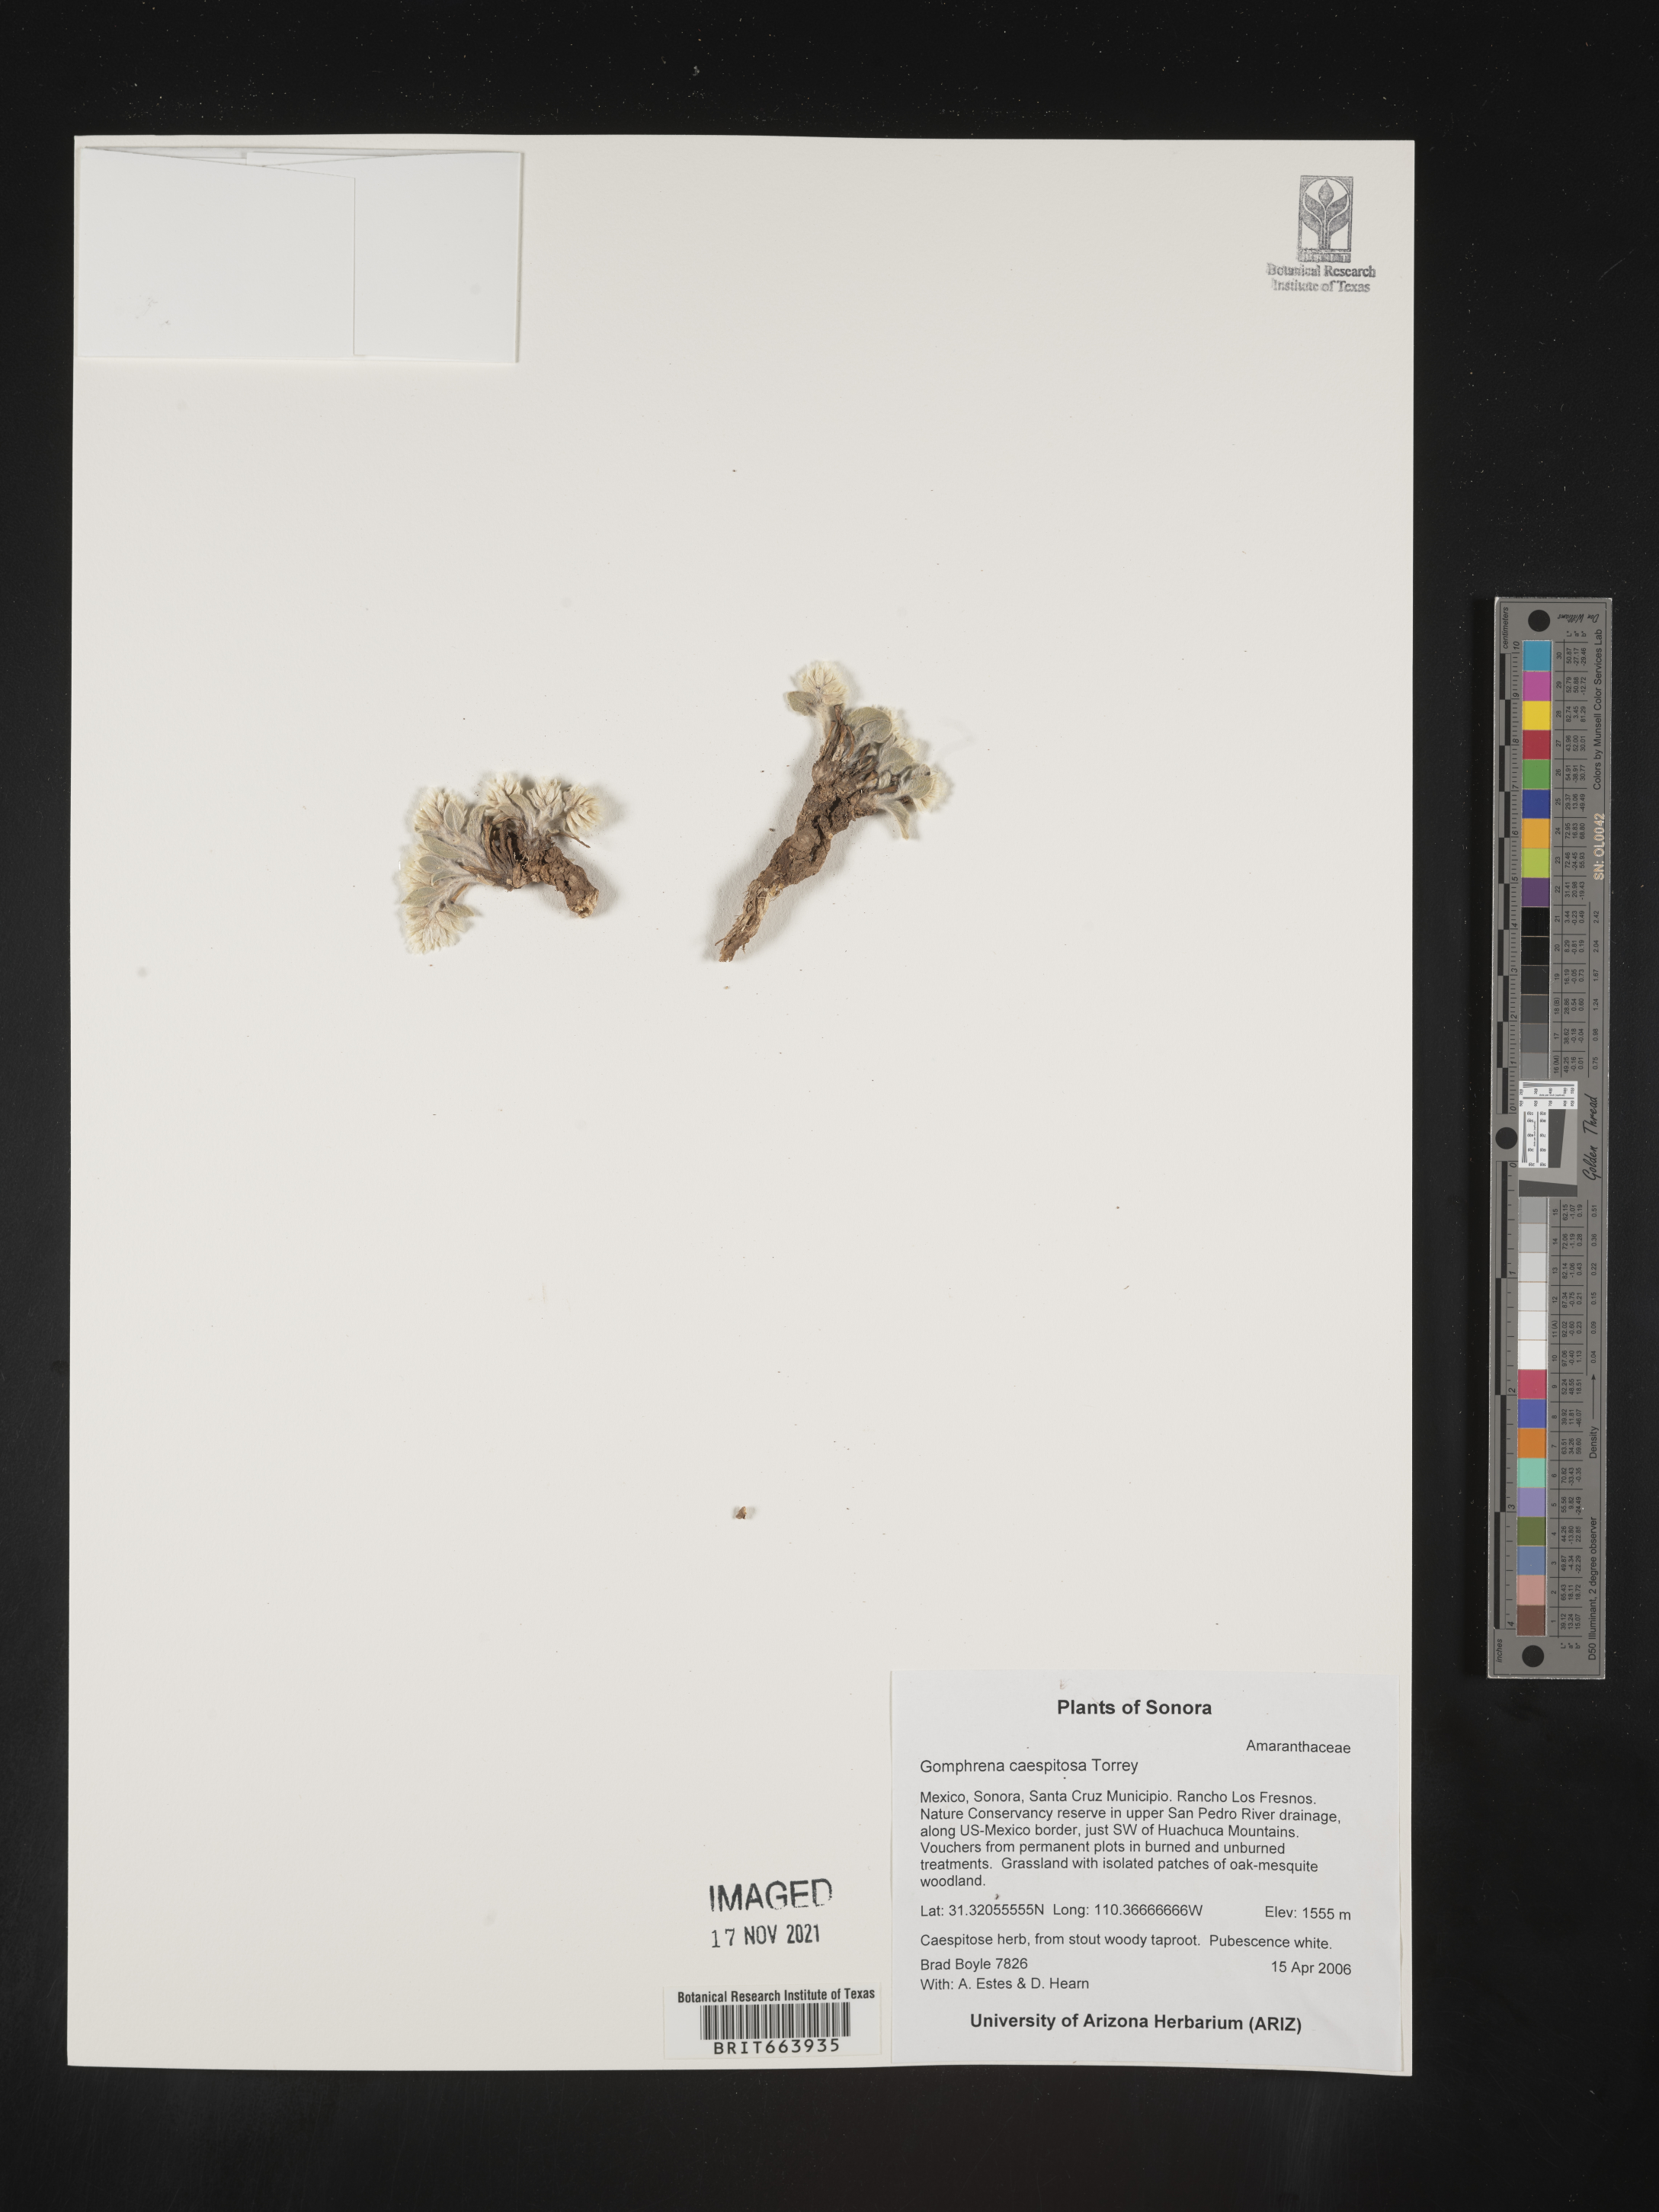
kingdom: Plantae
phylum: Tracheophyta
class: Magnoliopsida
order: Caryophyllales
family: Amaranthaceae
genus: Gomphrena
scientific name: Gomphrena
